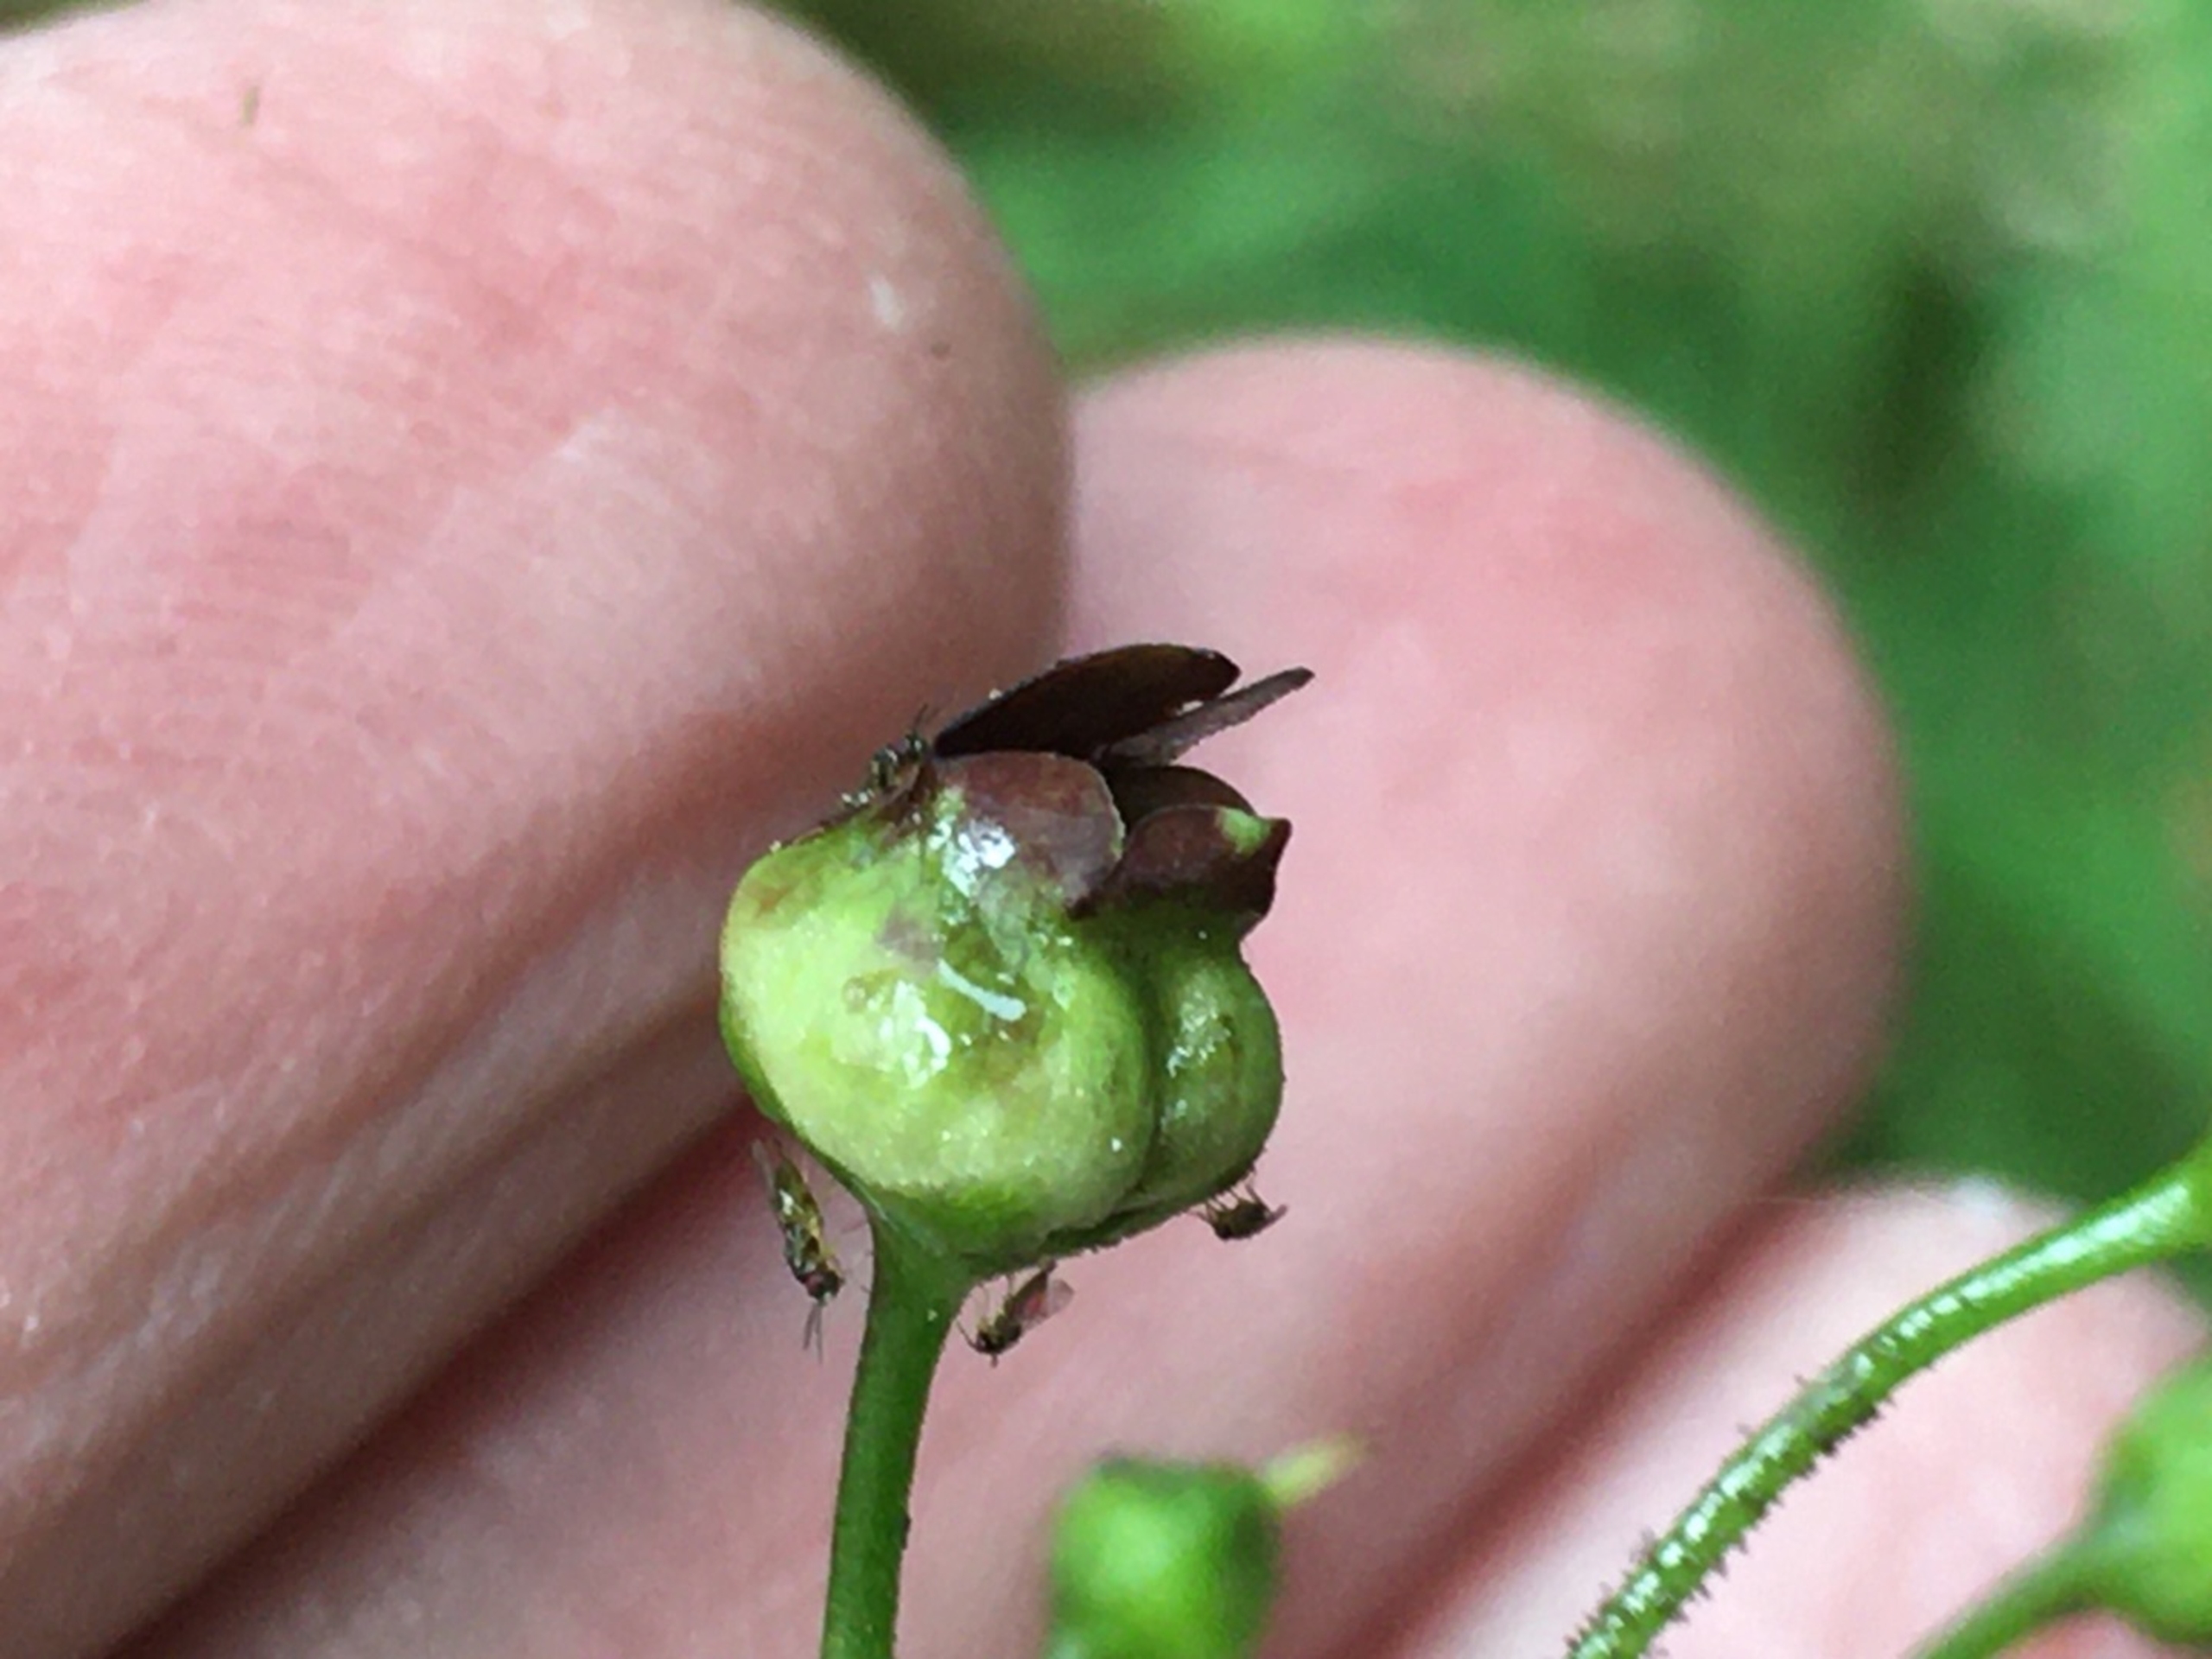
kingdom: Animalia
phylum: Arthropoda
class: Insecta
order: Diptera
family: Cecidomyiidae
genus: Contarinia
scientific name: Contarinia scrophulariae
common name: Brunrodsgalmyg
